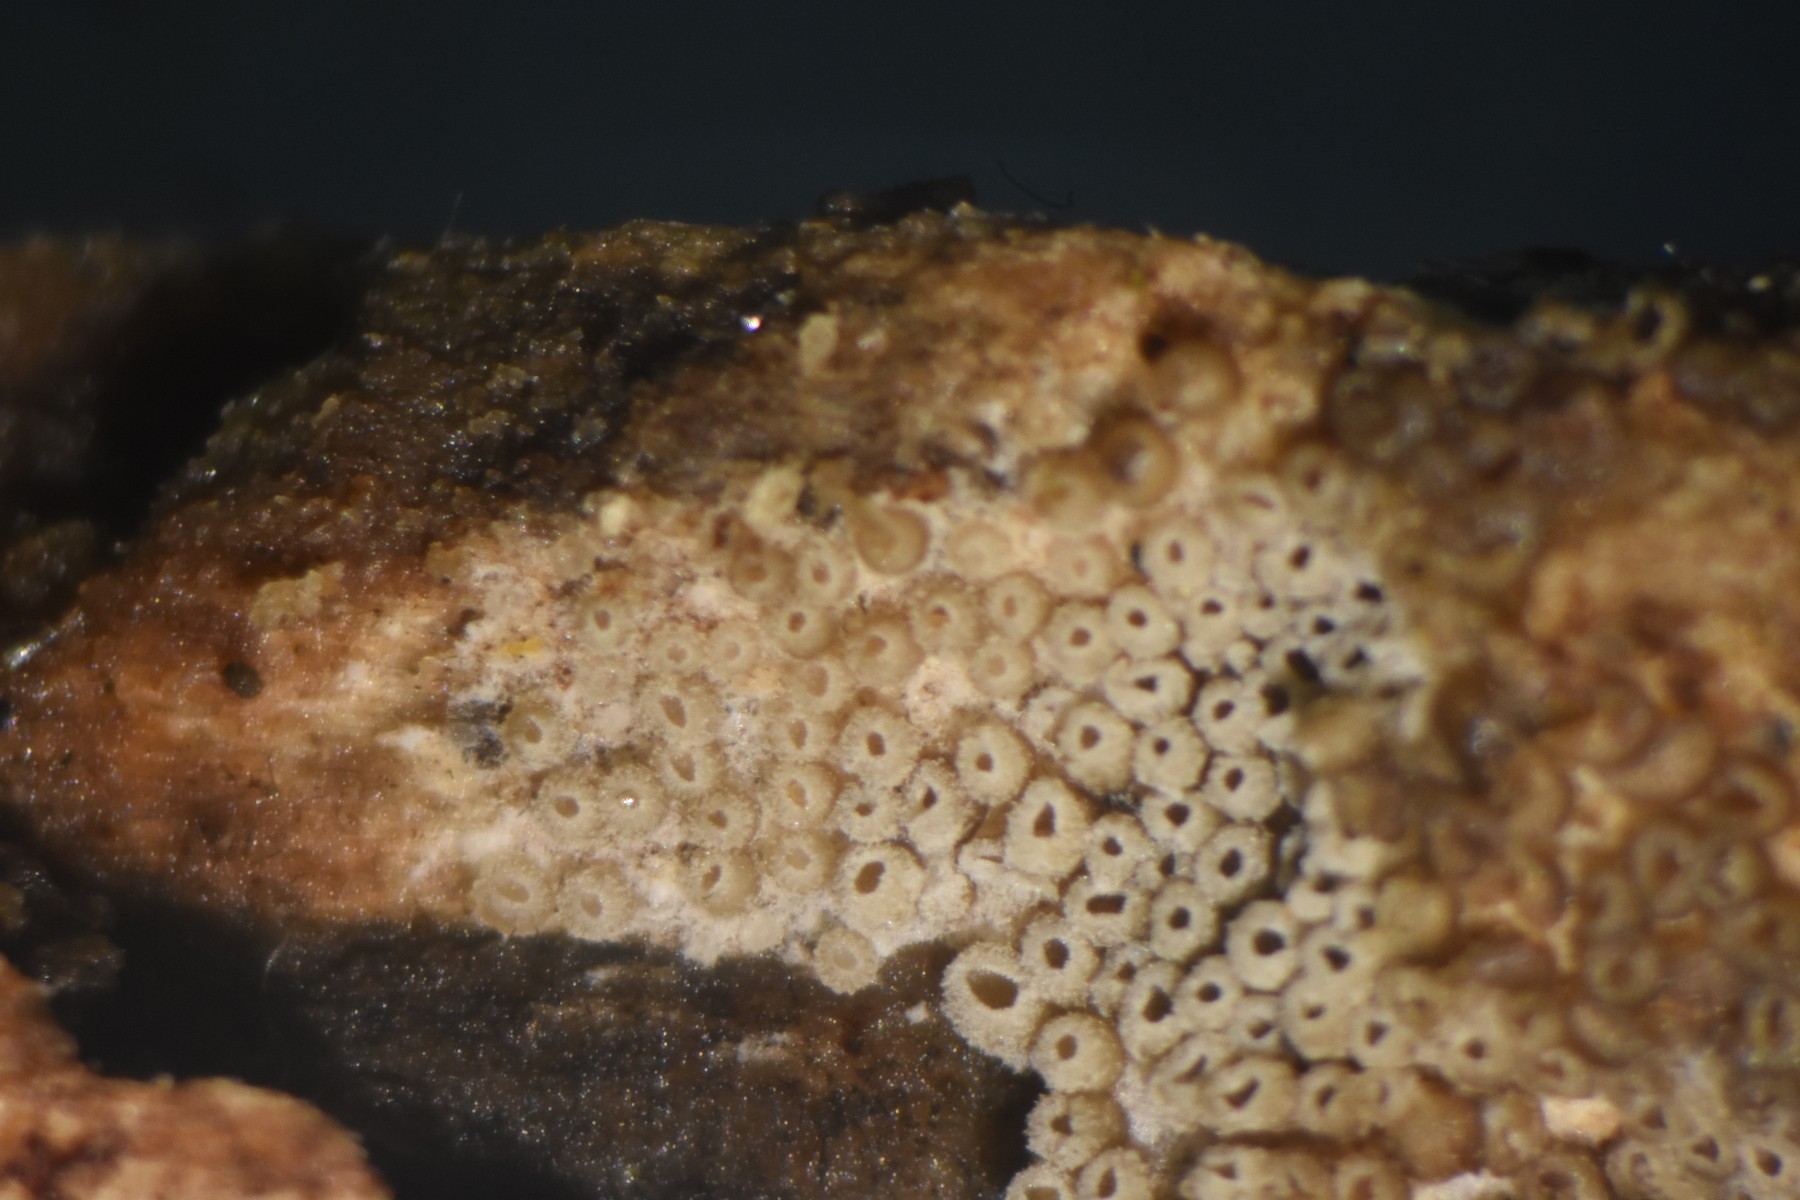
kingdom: Fungi
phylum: Basidiomycota
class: Agaricomycetes
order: Agaricales
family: Pleurotaceae
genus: Resupinatus
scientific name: Resupinatus poriaeformis
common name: tæpperør
